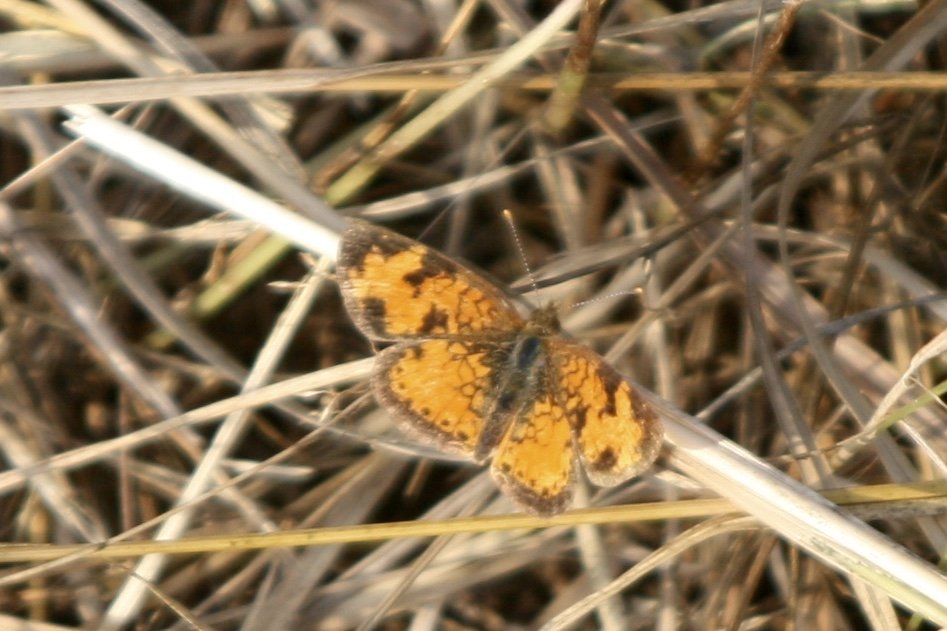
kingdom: Animalia
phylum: Arthropoda
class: Insecta
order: Lepidoptera
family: Nymphalidae
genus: Phyciodes
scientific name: Phyciodes tharos
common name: Northern Crescent
